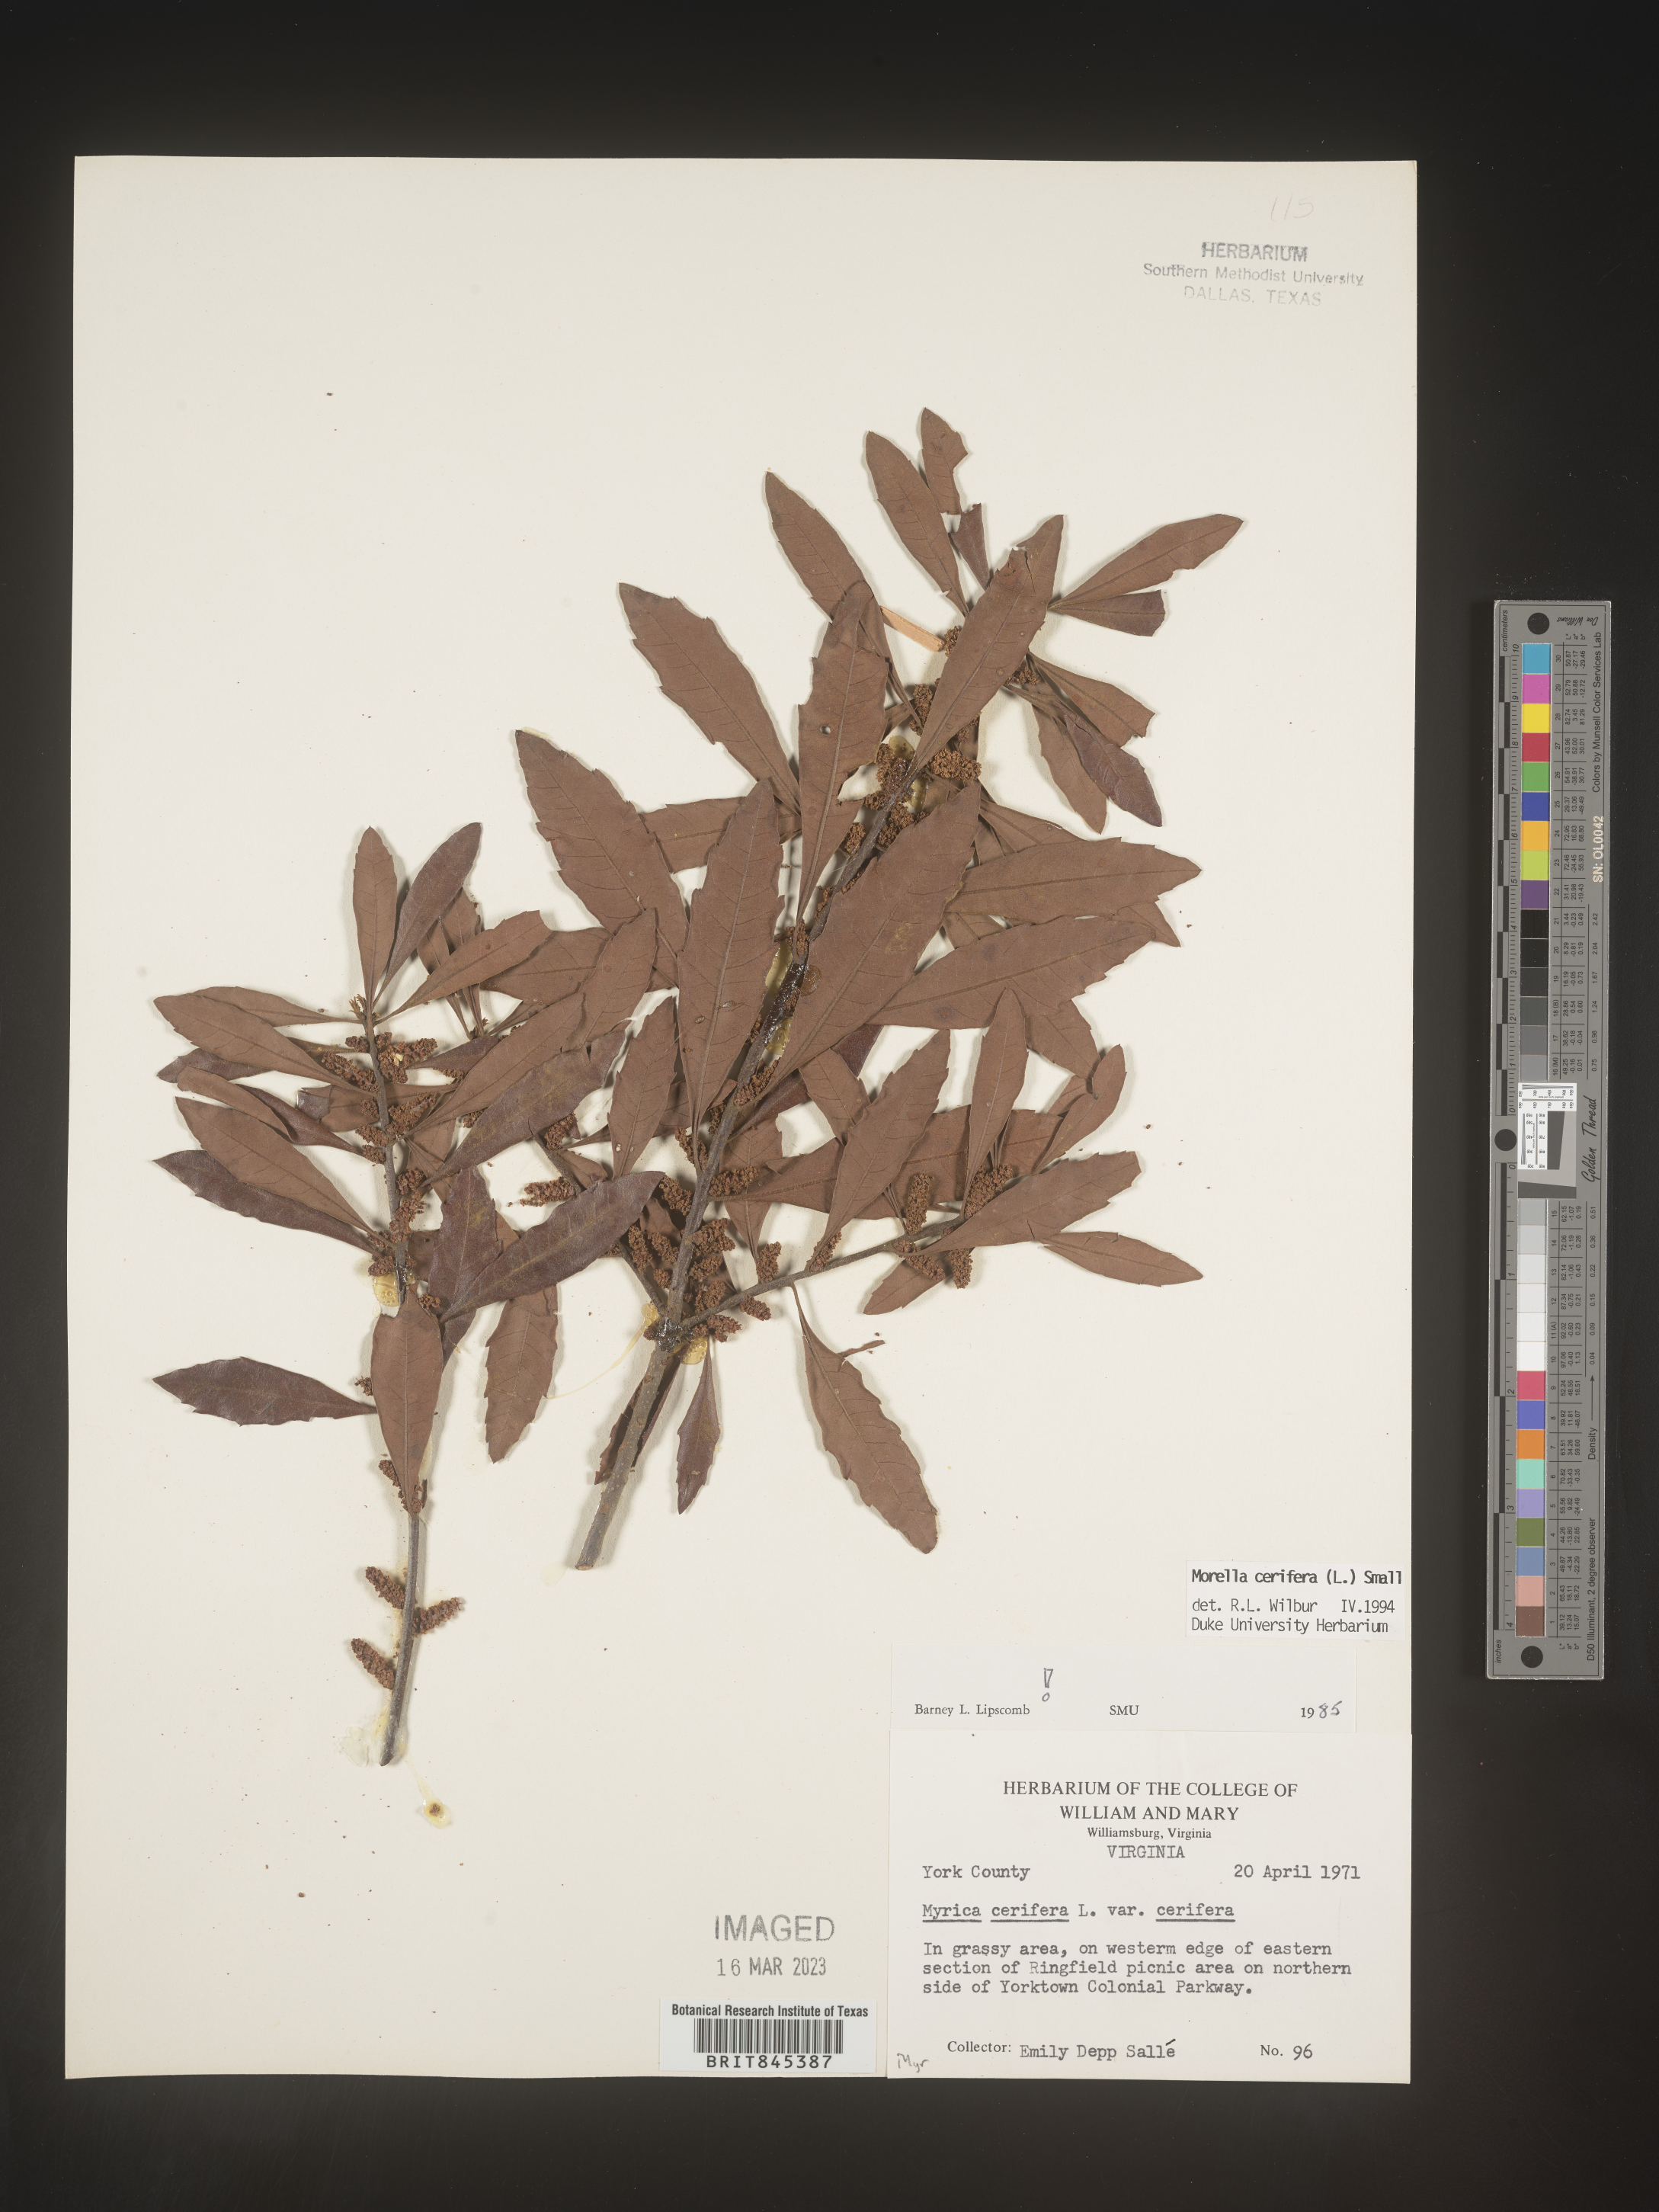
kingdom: Plantae
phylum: Tracheophyta
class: Magnoliopsida
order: Fagales
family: Myricaceae
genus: Morella
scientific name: Morella cerifera
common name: Wax myrtle
